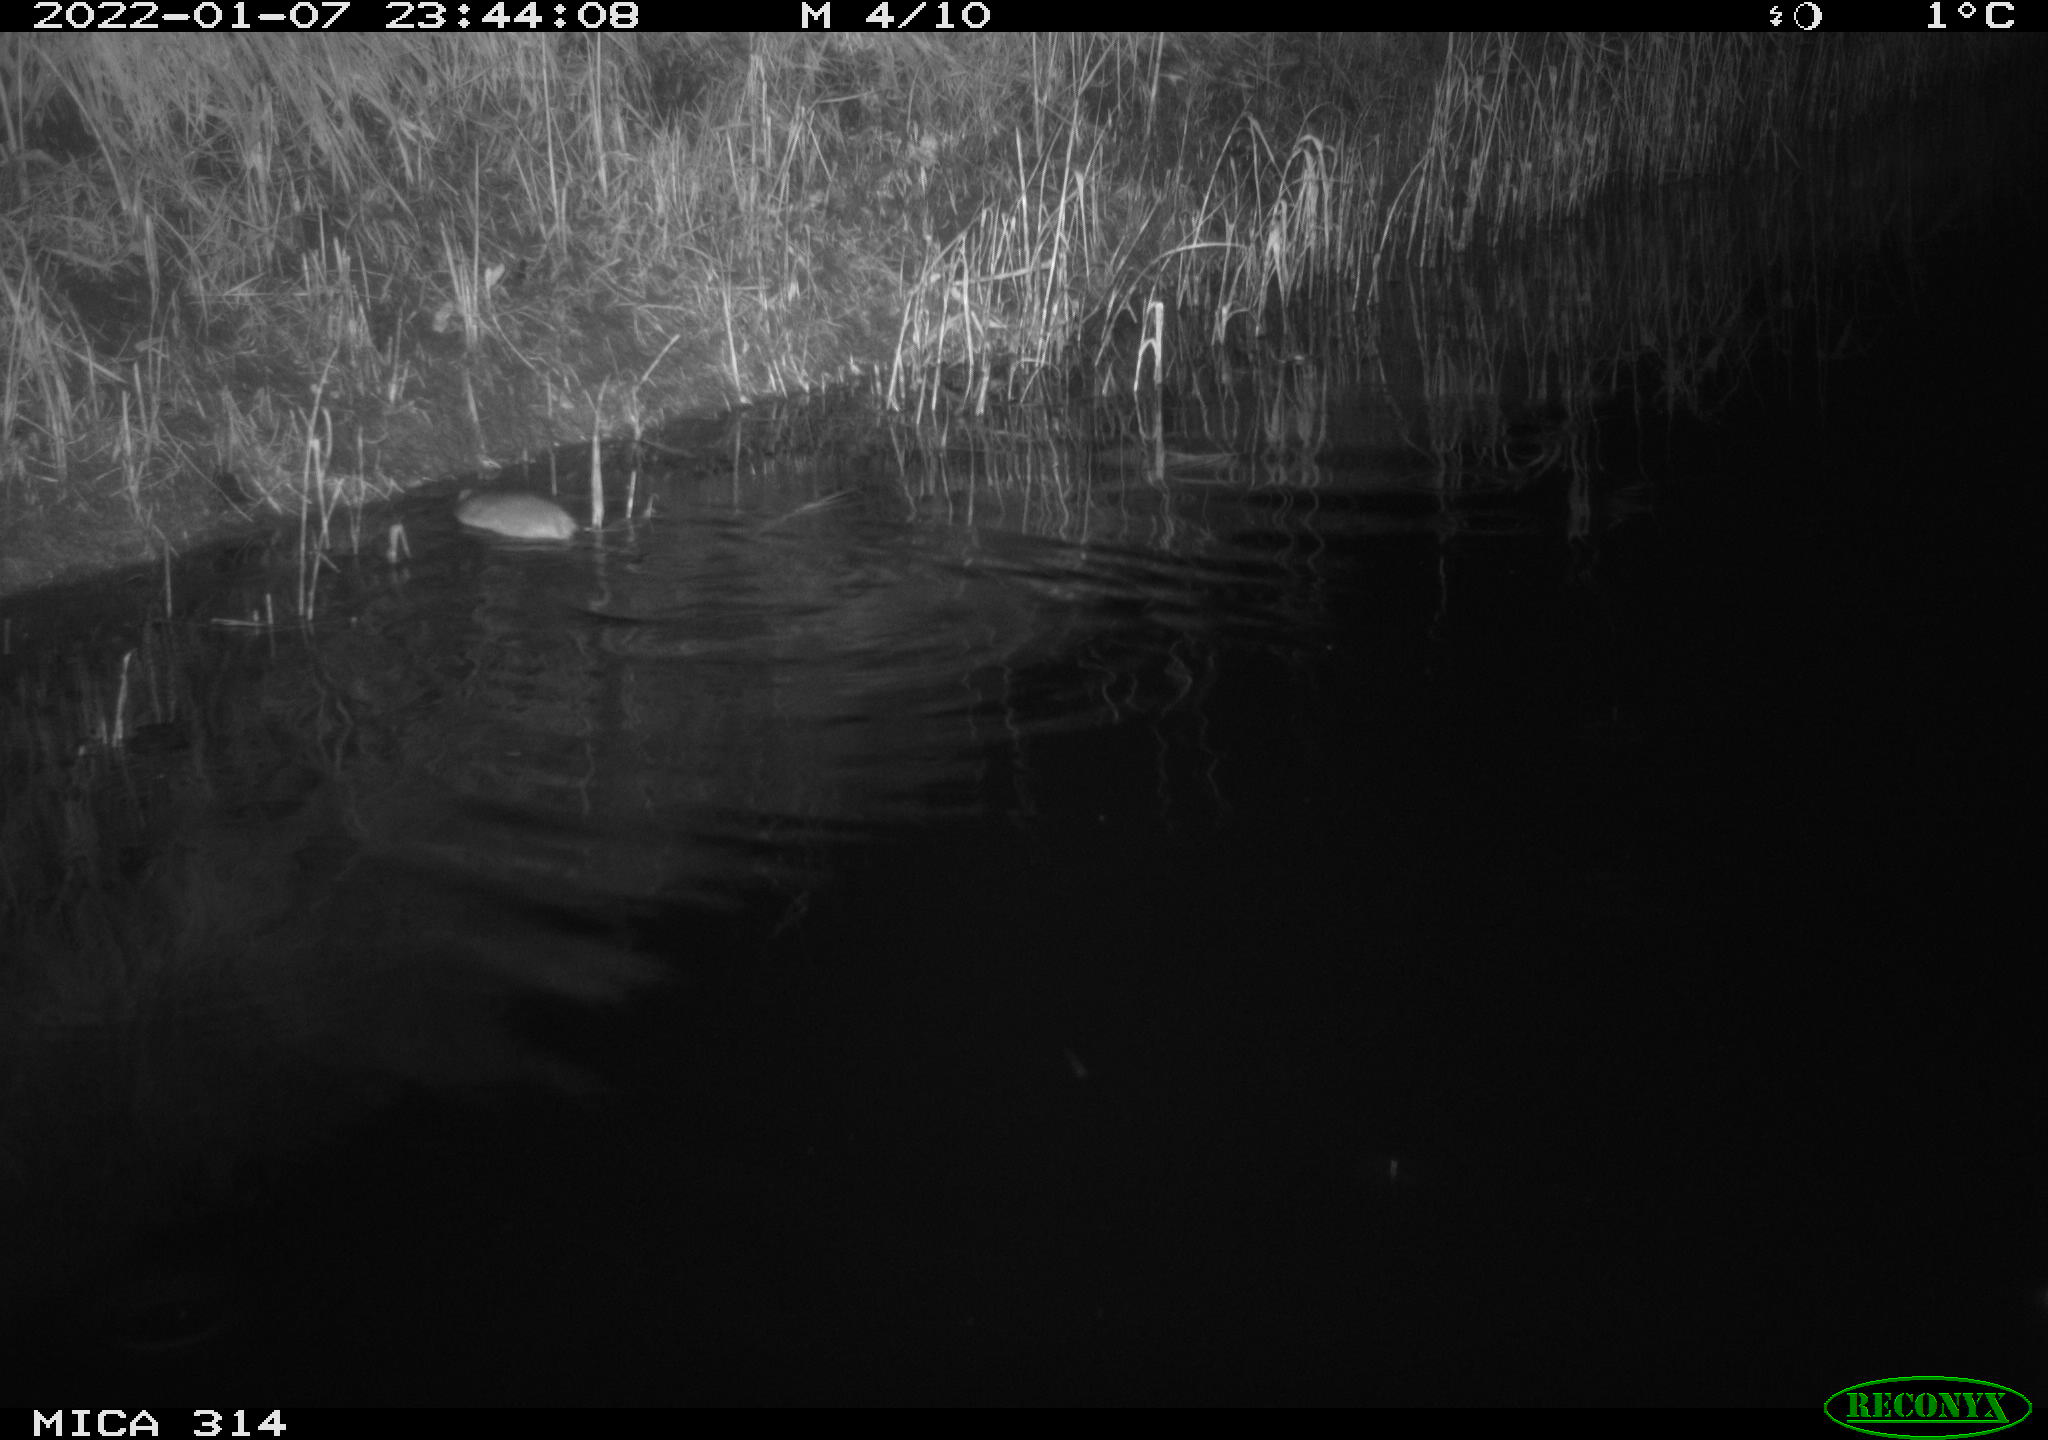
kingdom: Animalia
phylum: Chordata
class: Mammalia
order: Rodentia
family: Muridae
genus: Rattus
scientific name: Rattus norvegicus
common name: Brown rat
